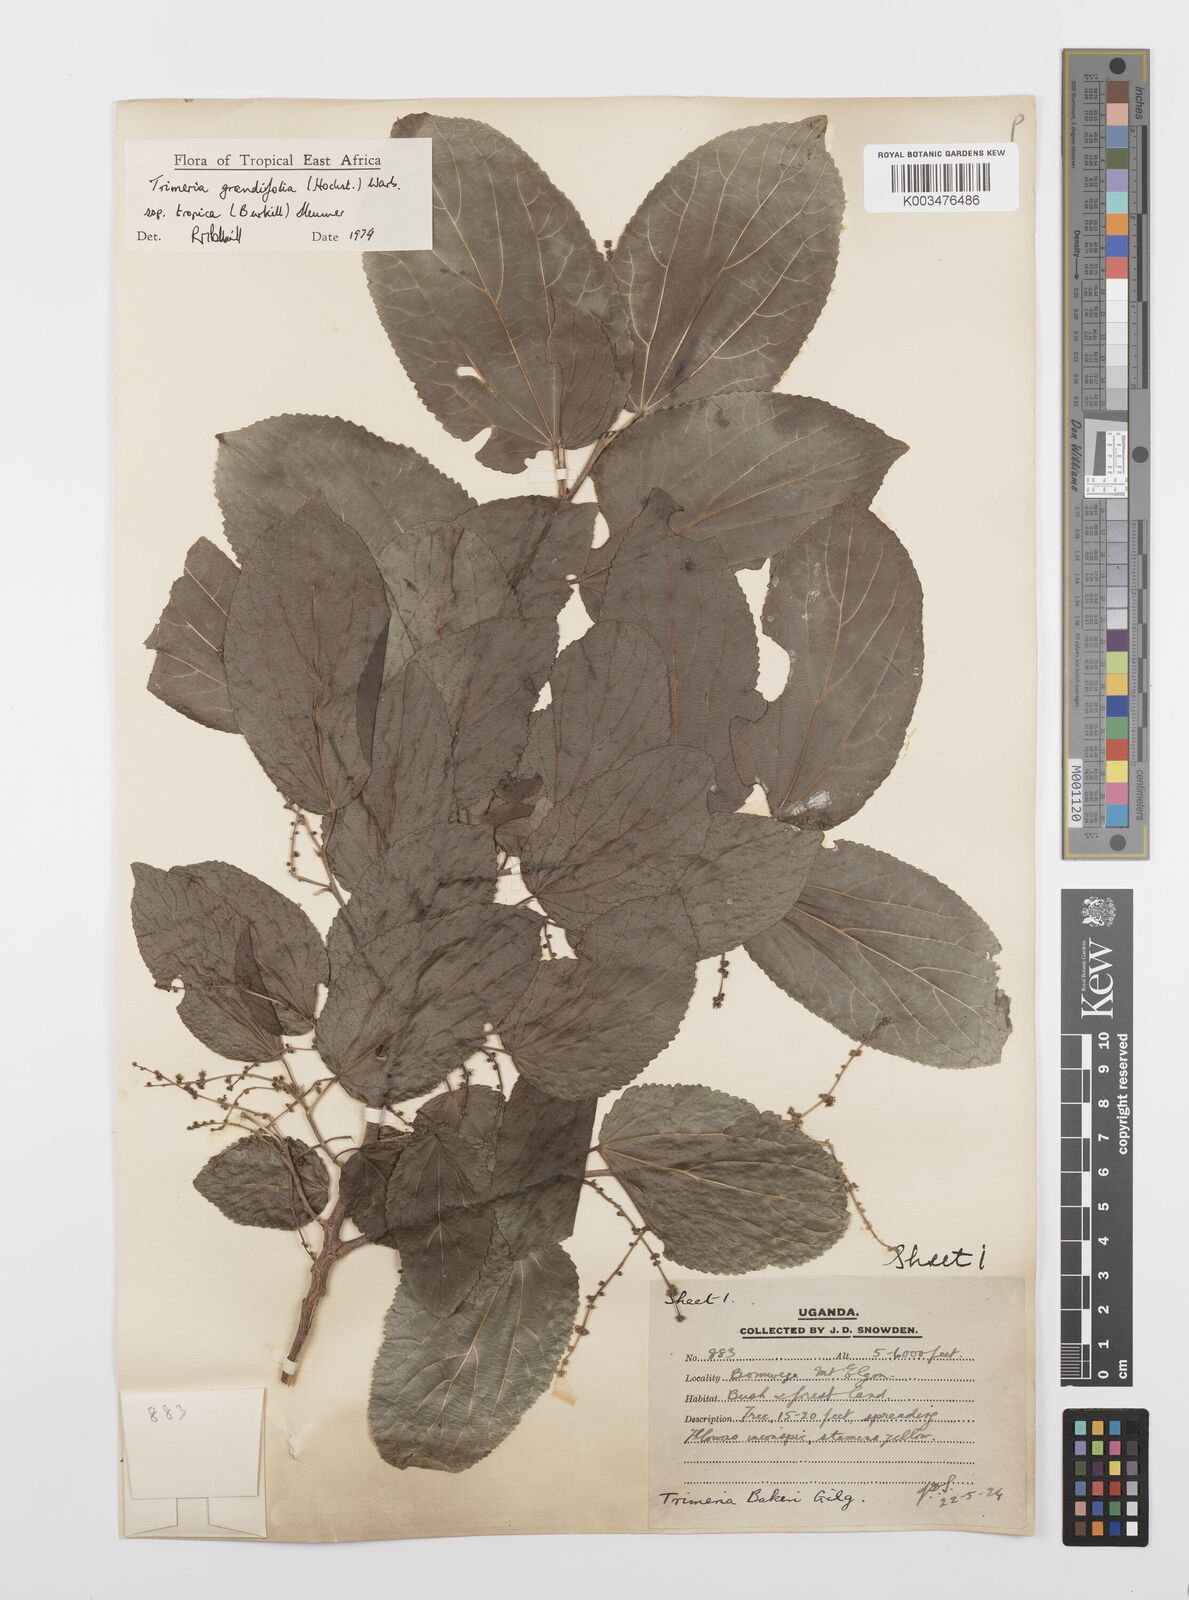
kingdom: Plantae
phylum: Tracheophyta
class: Magnoliopsida
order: Malpighiales
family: Salicaceae
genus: Trimeria
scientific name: Trimeria grandifolia
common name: Wild mulberry
